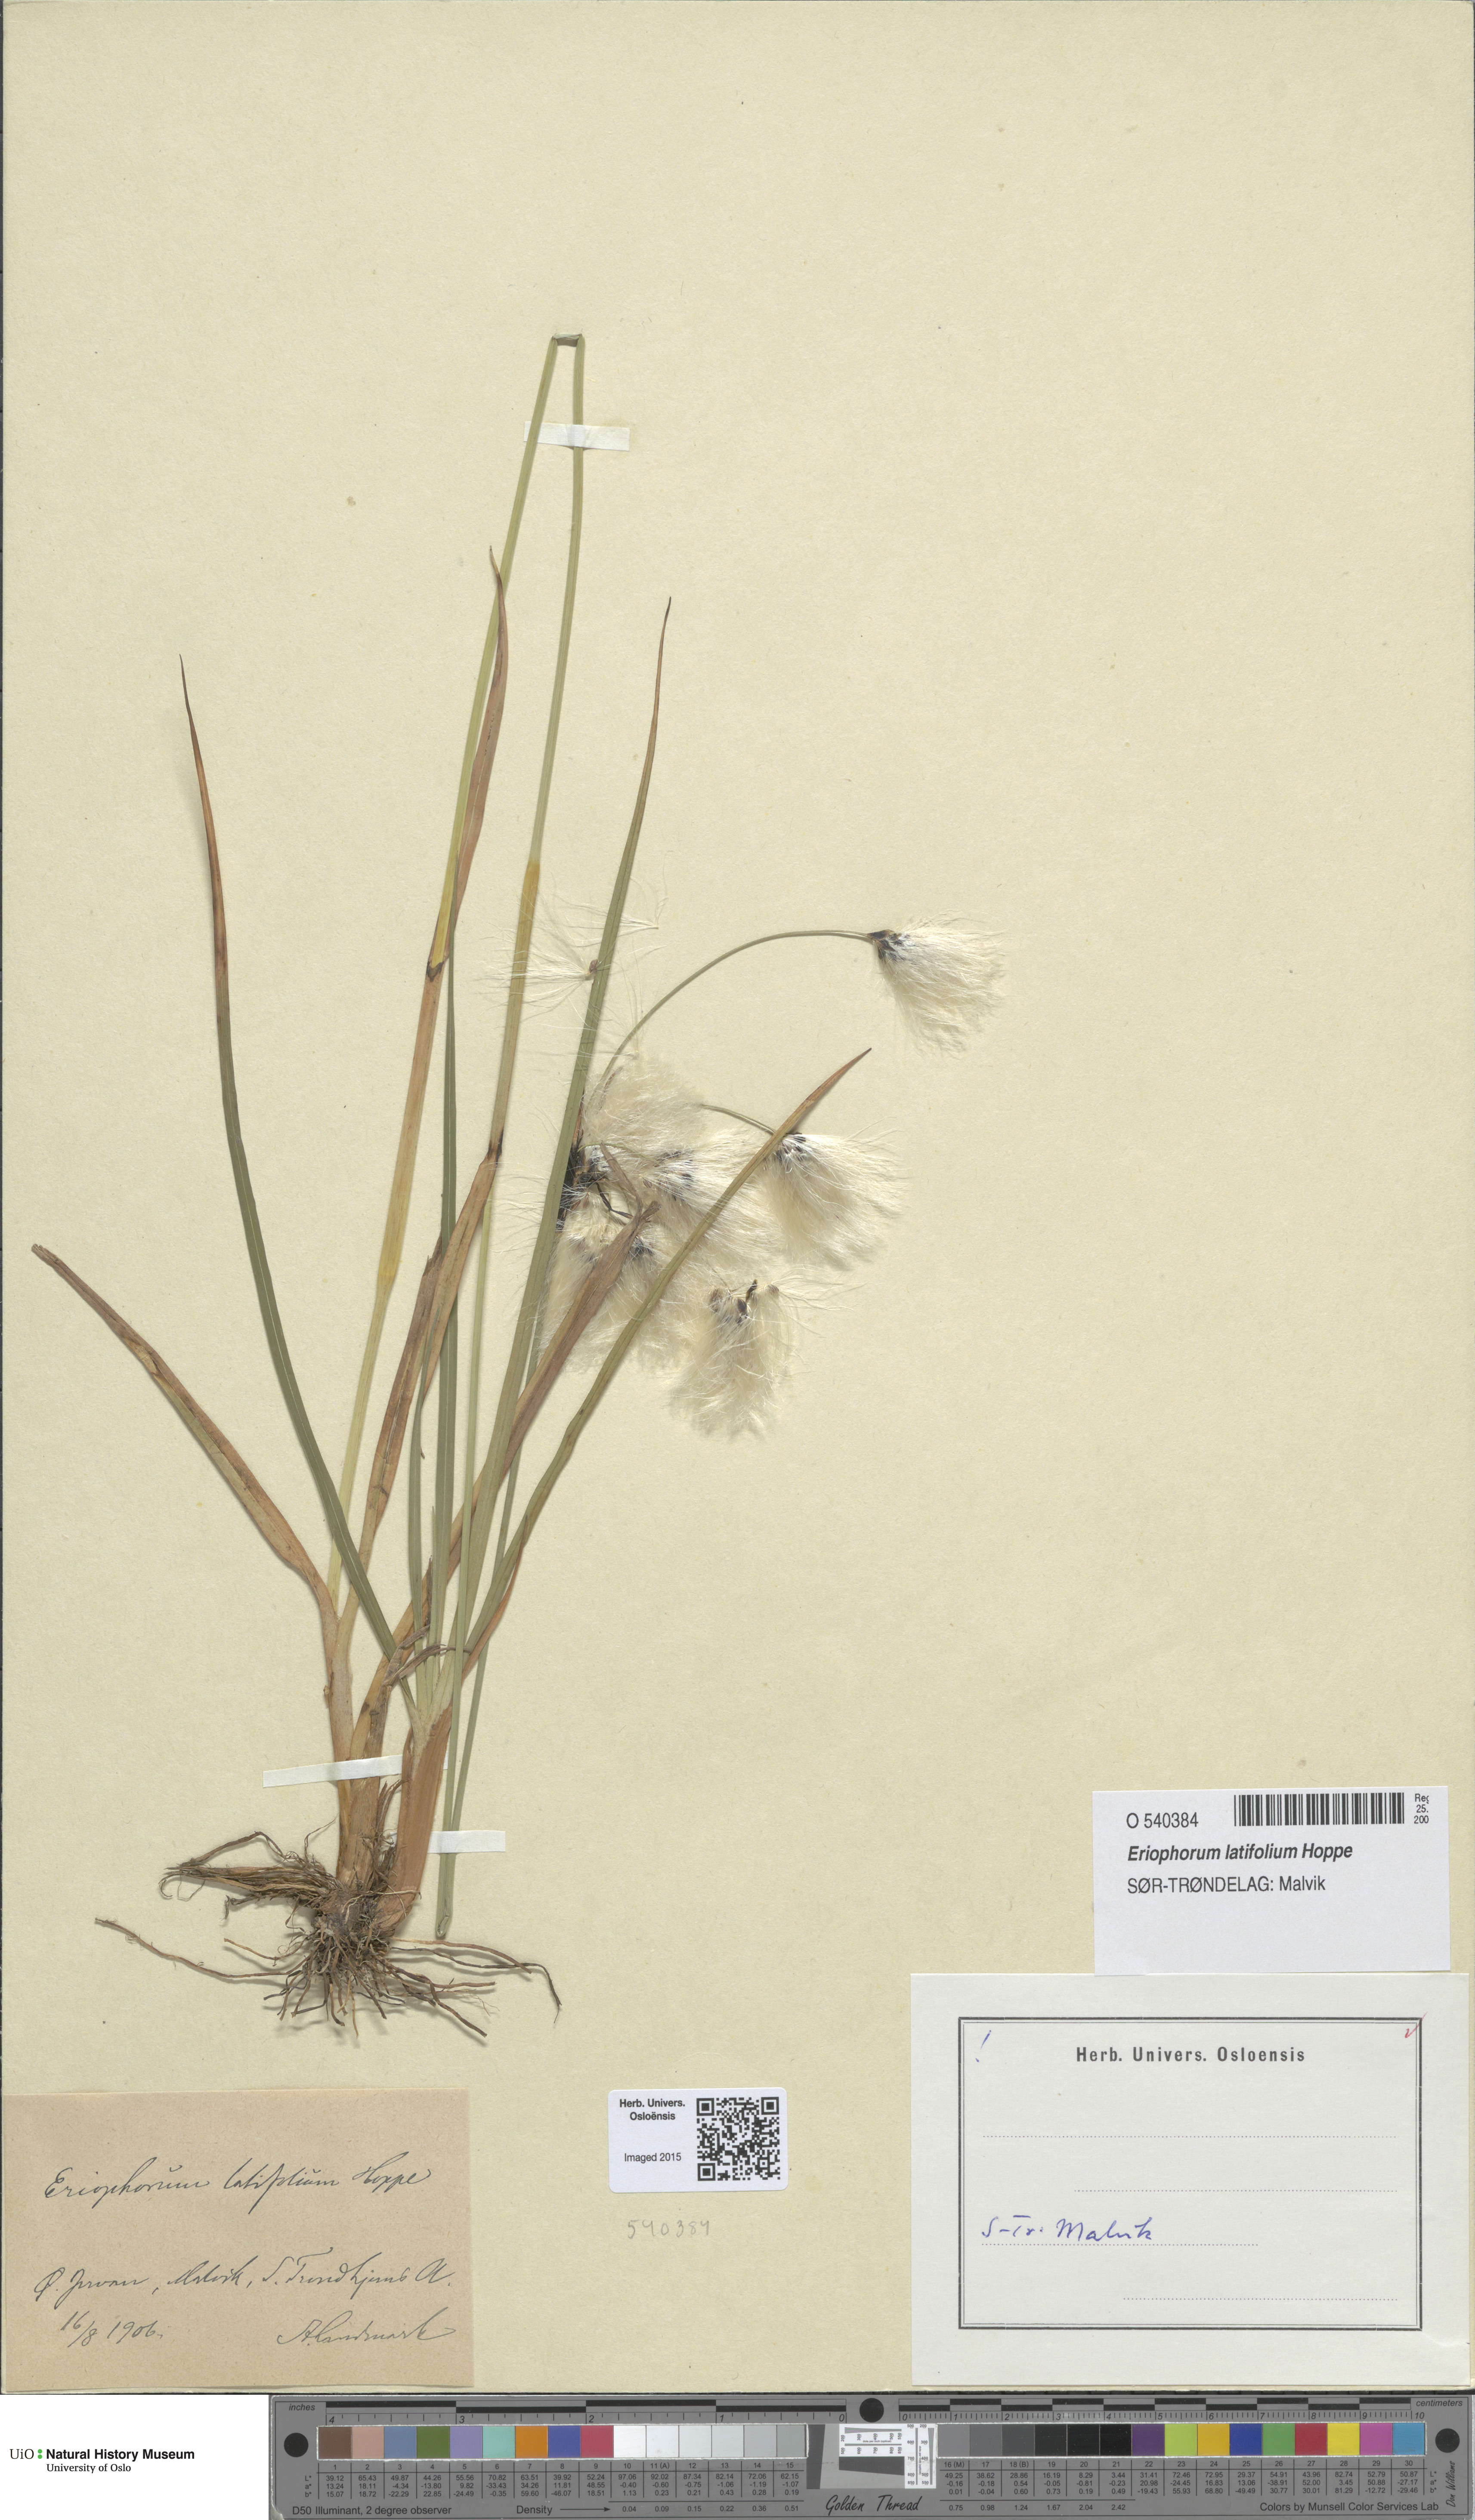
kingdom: Plantae
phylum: Tracheophyta
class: Liliopsida
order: Poales
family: Cyperaceae
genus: Eriophorum
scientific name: Eriophorum latifolium
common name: Broad-leaved cottongrass
